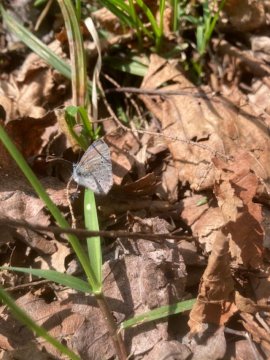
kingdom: Animalia
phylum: Arthropoda
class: Insecta
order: Lepidoptera
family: Lycaenidae
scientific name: Lycaenidae
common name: Gossamerwings
